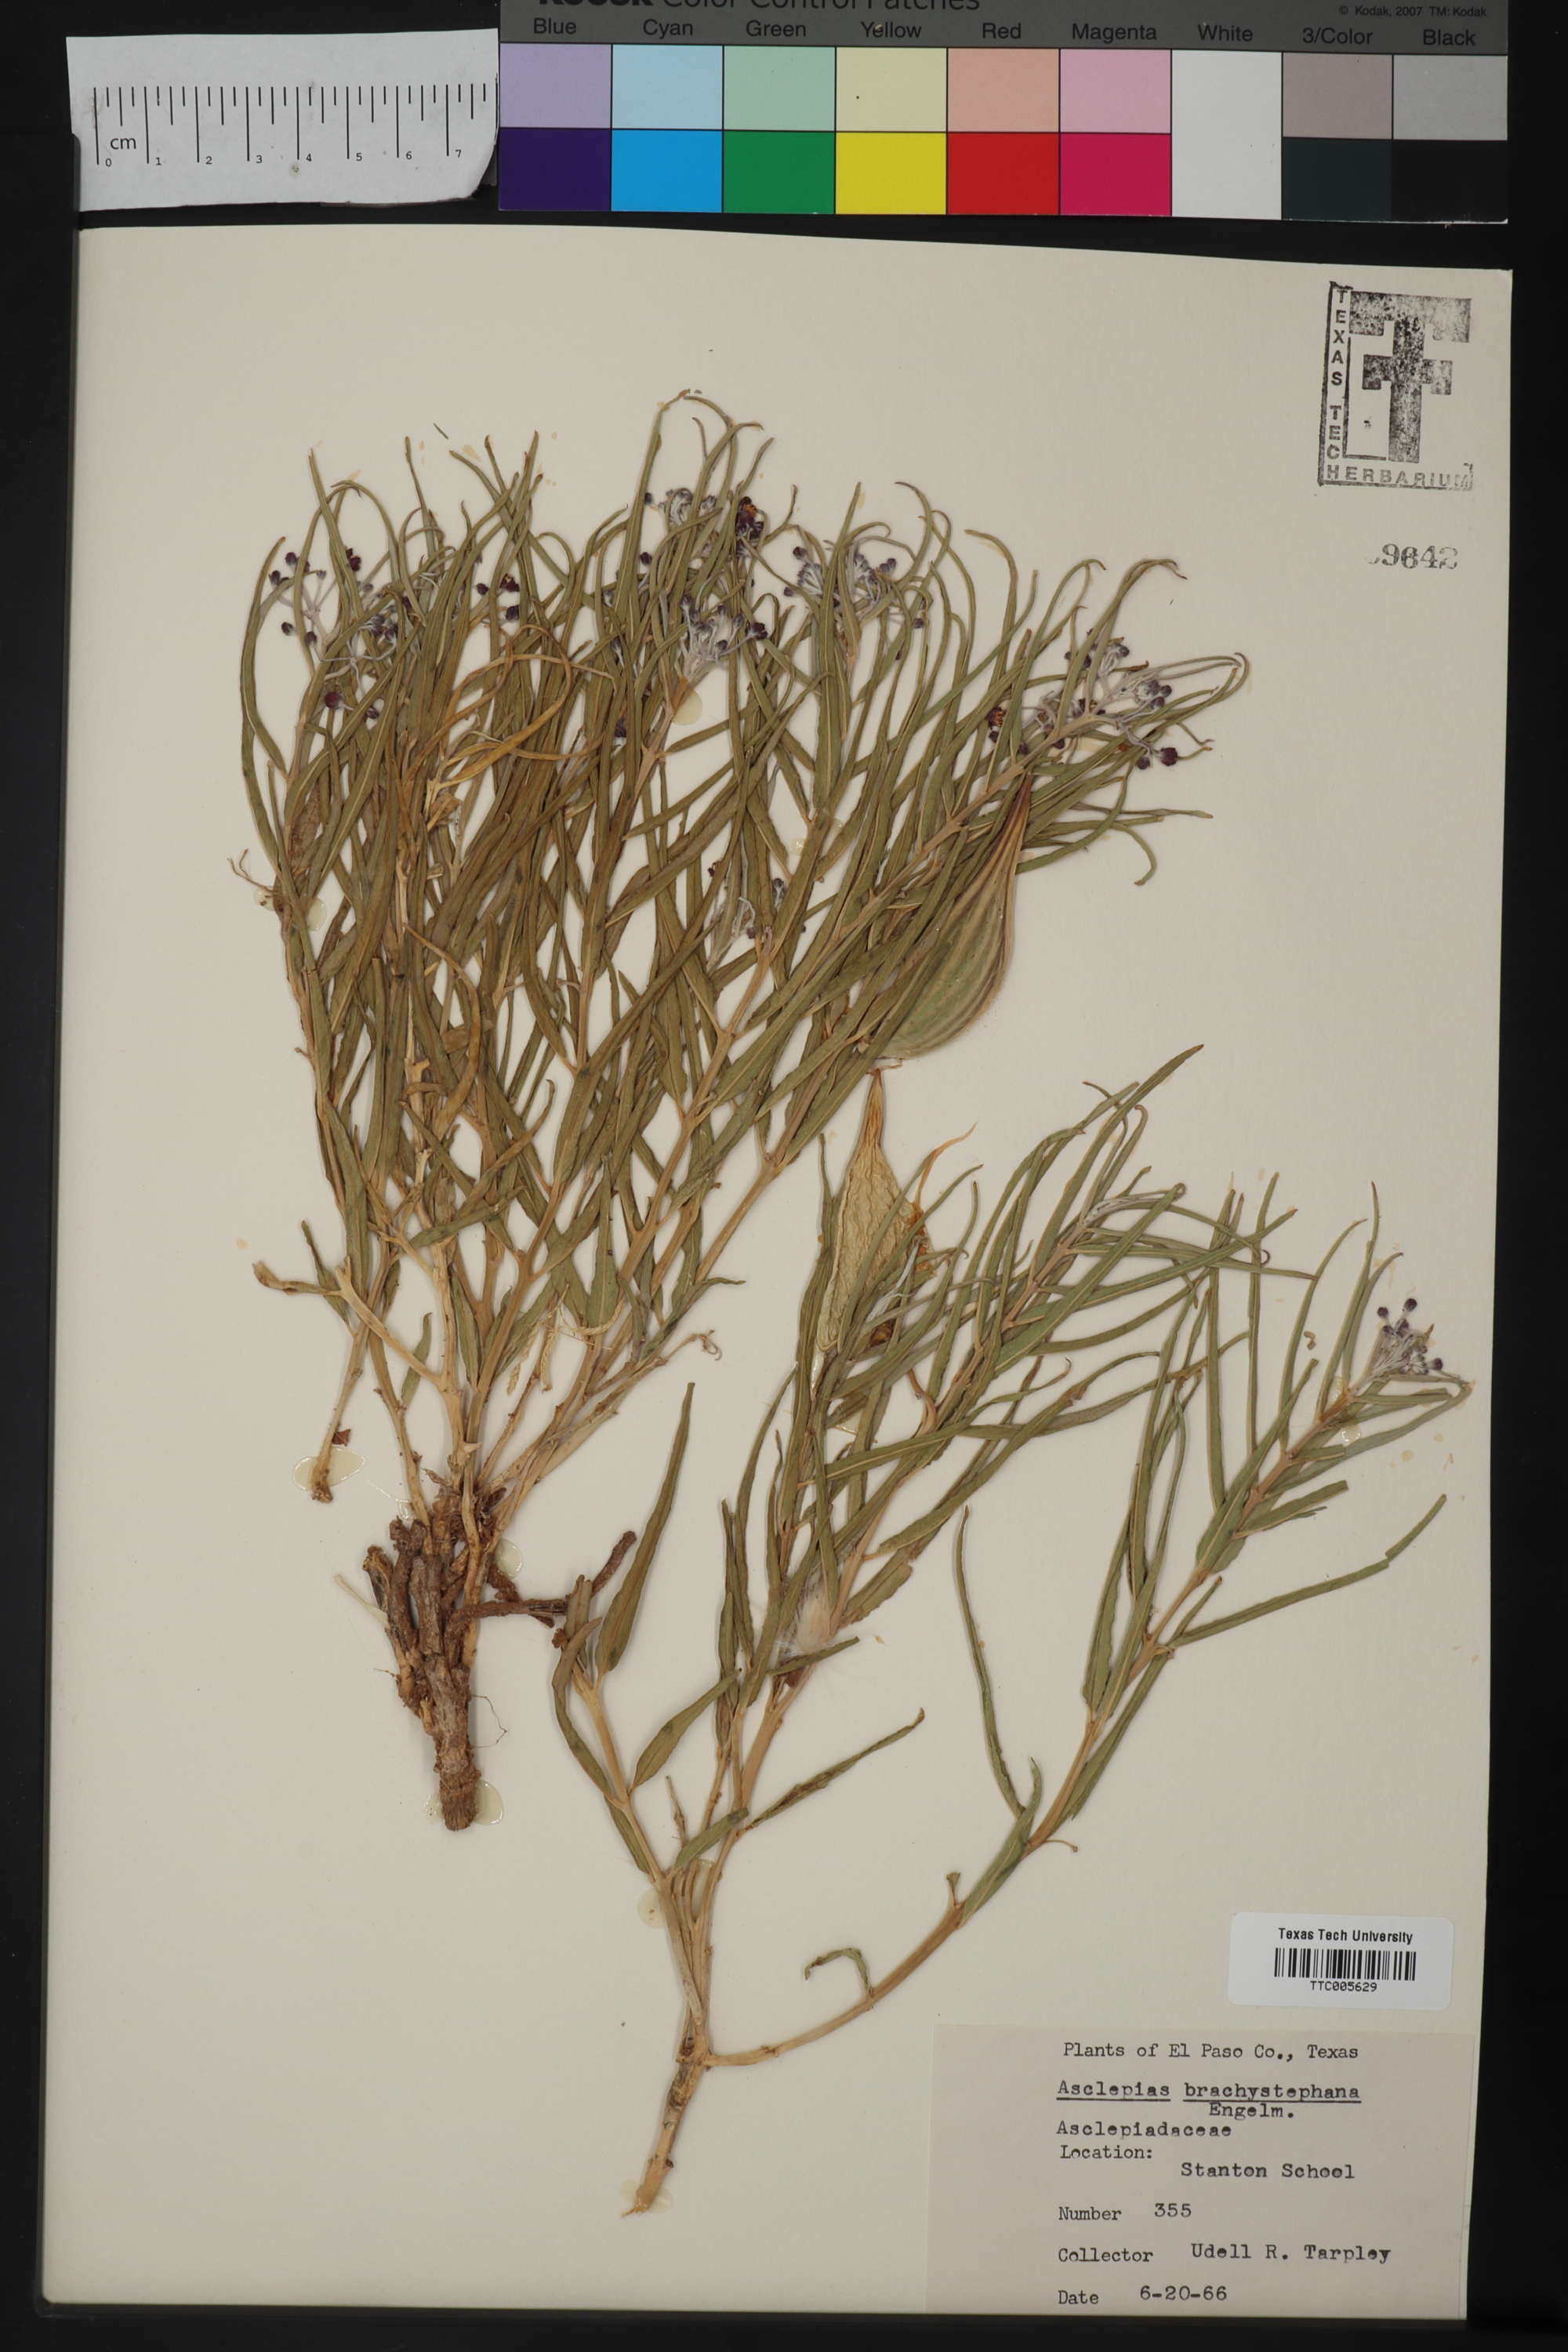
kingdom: Plantae
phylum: Tracheophyta
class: Magnoliopsida
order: Gentianales
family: Apocynaceae
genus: Asclepias
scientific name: Asclepias brachystephana
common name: Shortcrown milkweed
